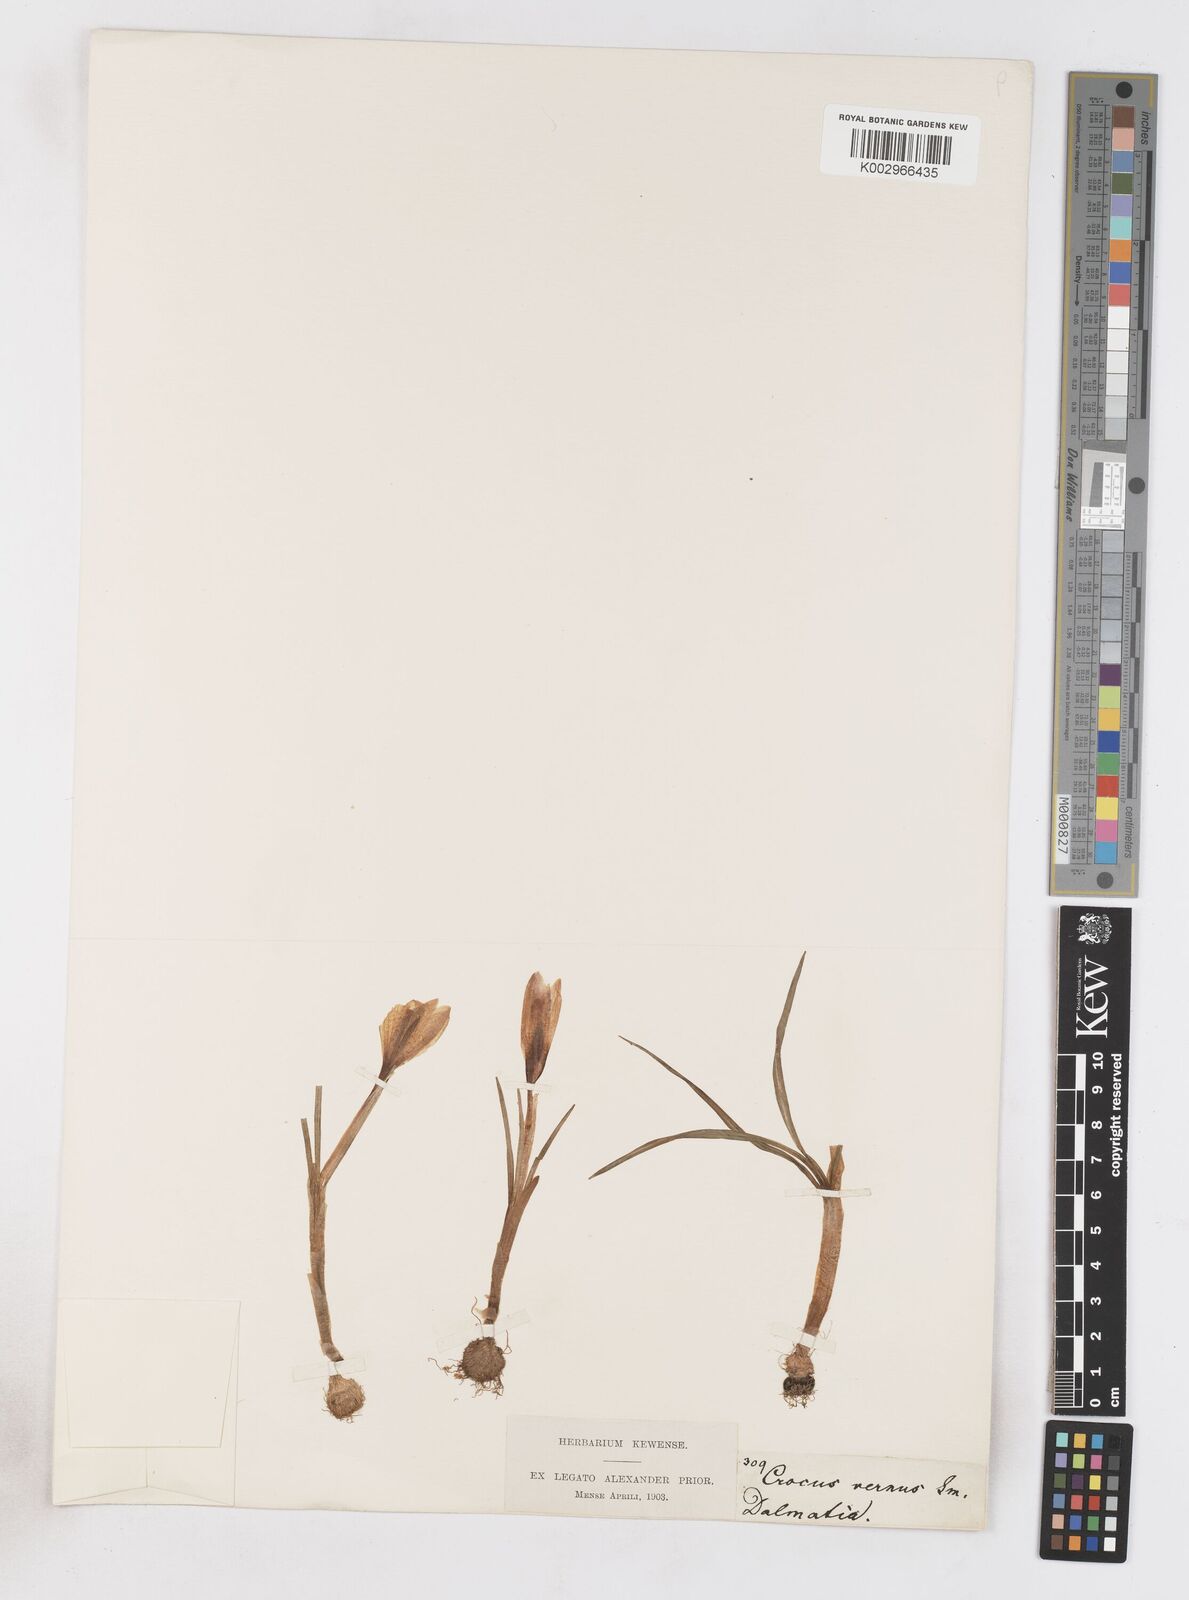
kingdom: Plantae
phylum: Tracheophyta
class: Liliopsida
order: Asparagales
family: Iridaceae
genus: Crocus
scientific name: Crocus vernus
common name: Spring crocus
